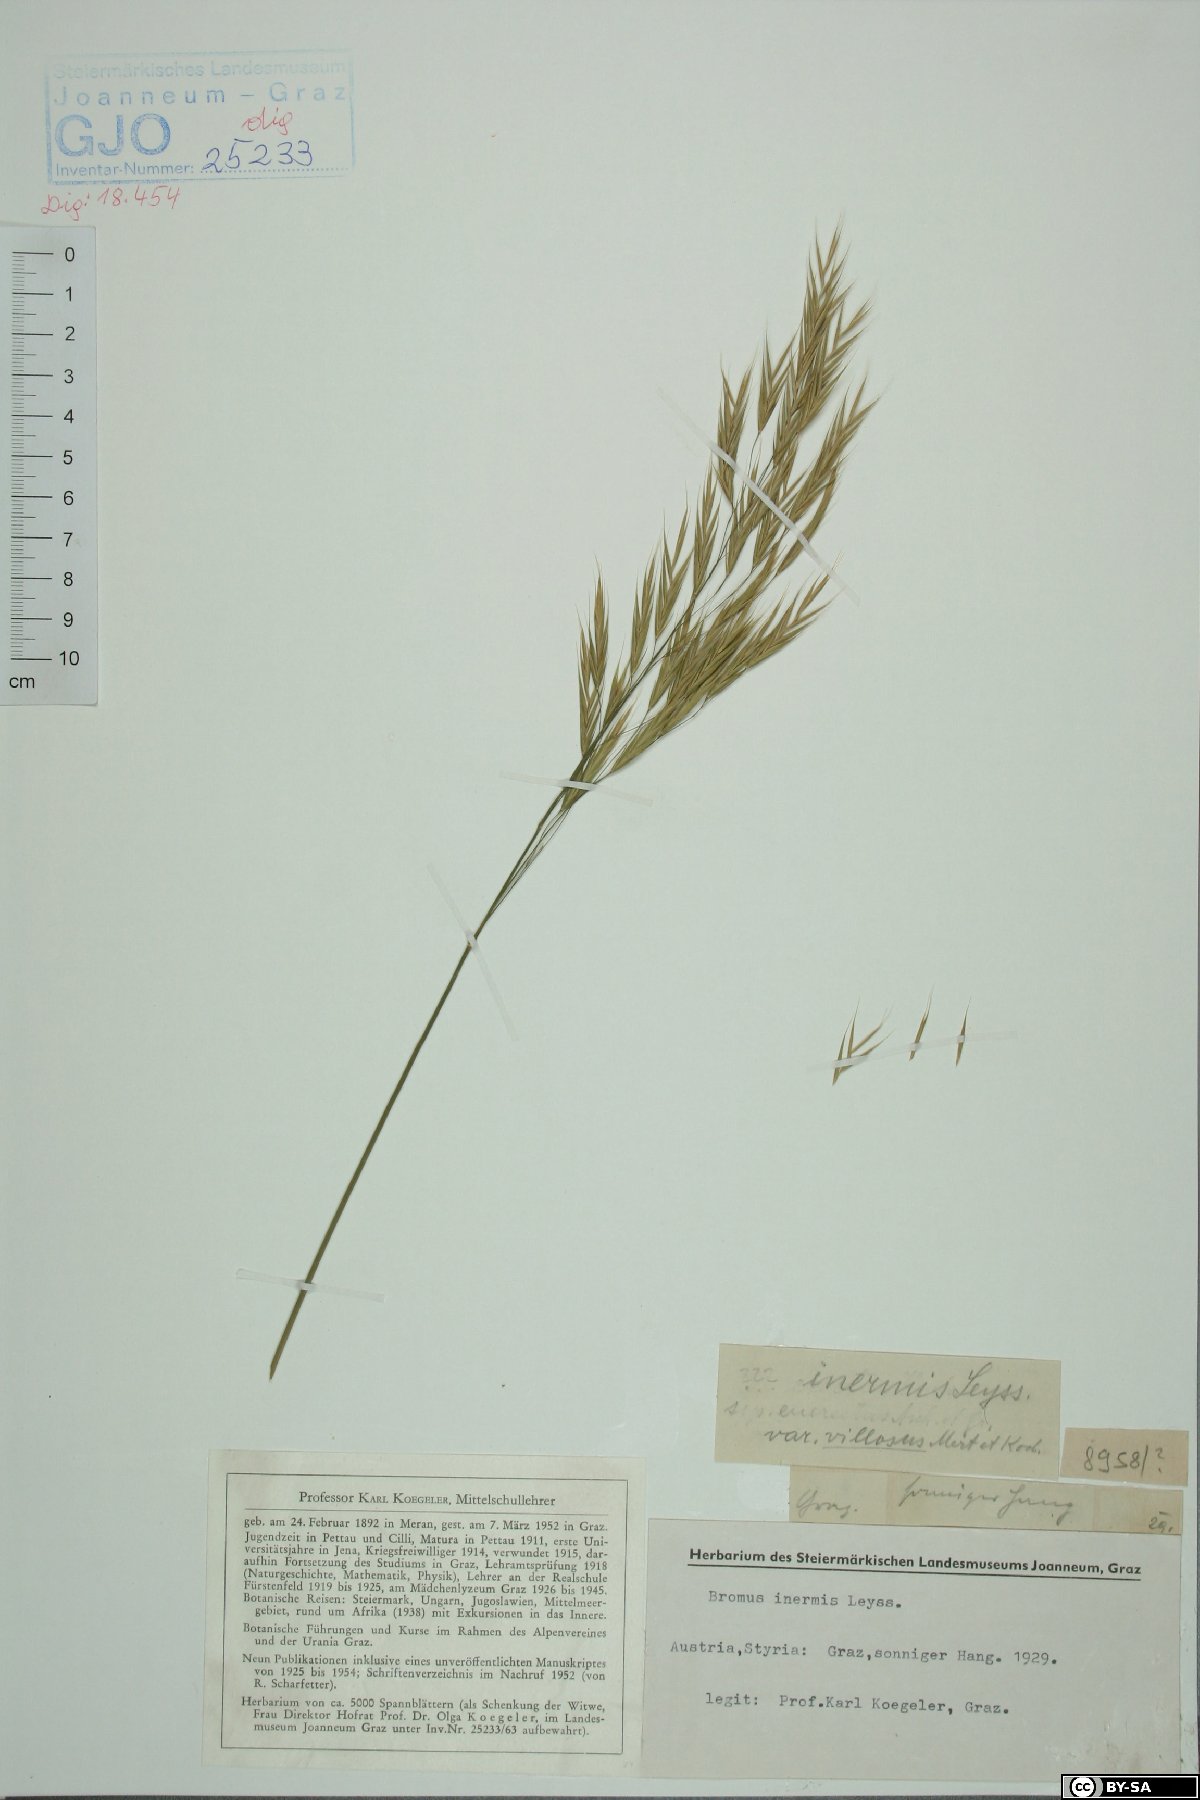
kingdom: Plantae
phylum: Tracheophyta
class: Liliopsida
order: Poales
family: Poaceae
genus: Bromus
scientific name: Bromus inermis
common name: Smooth brome
